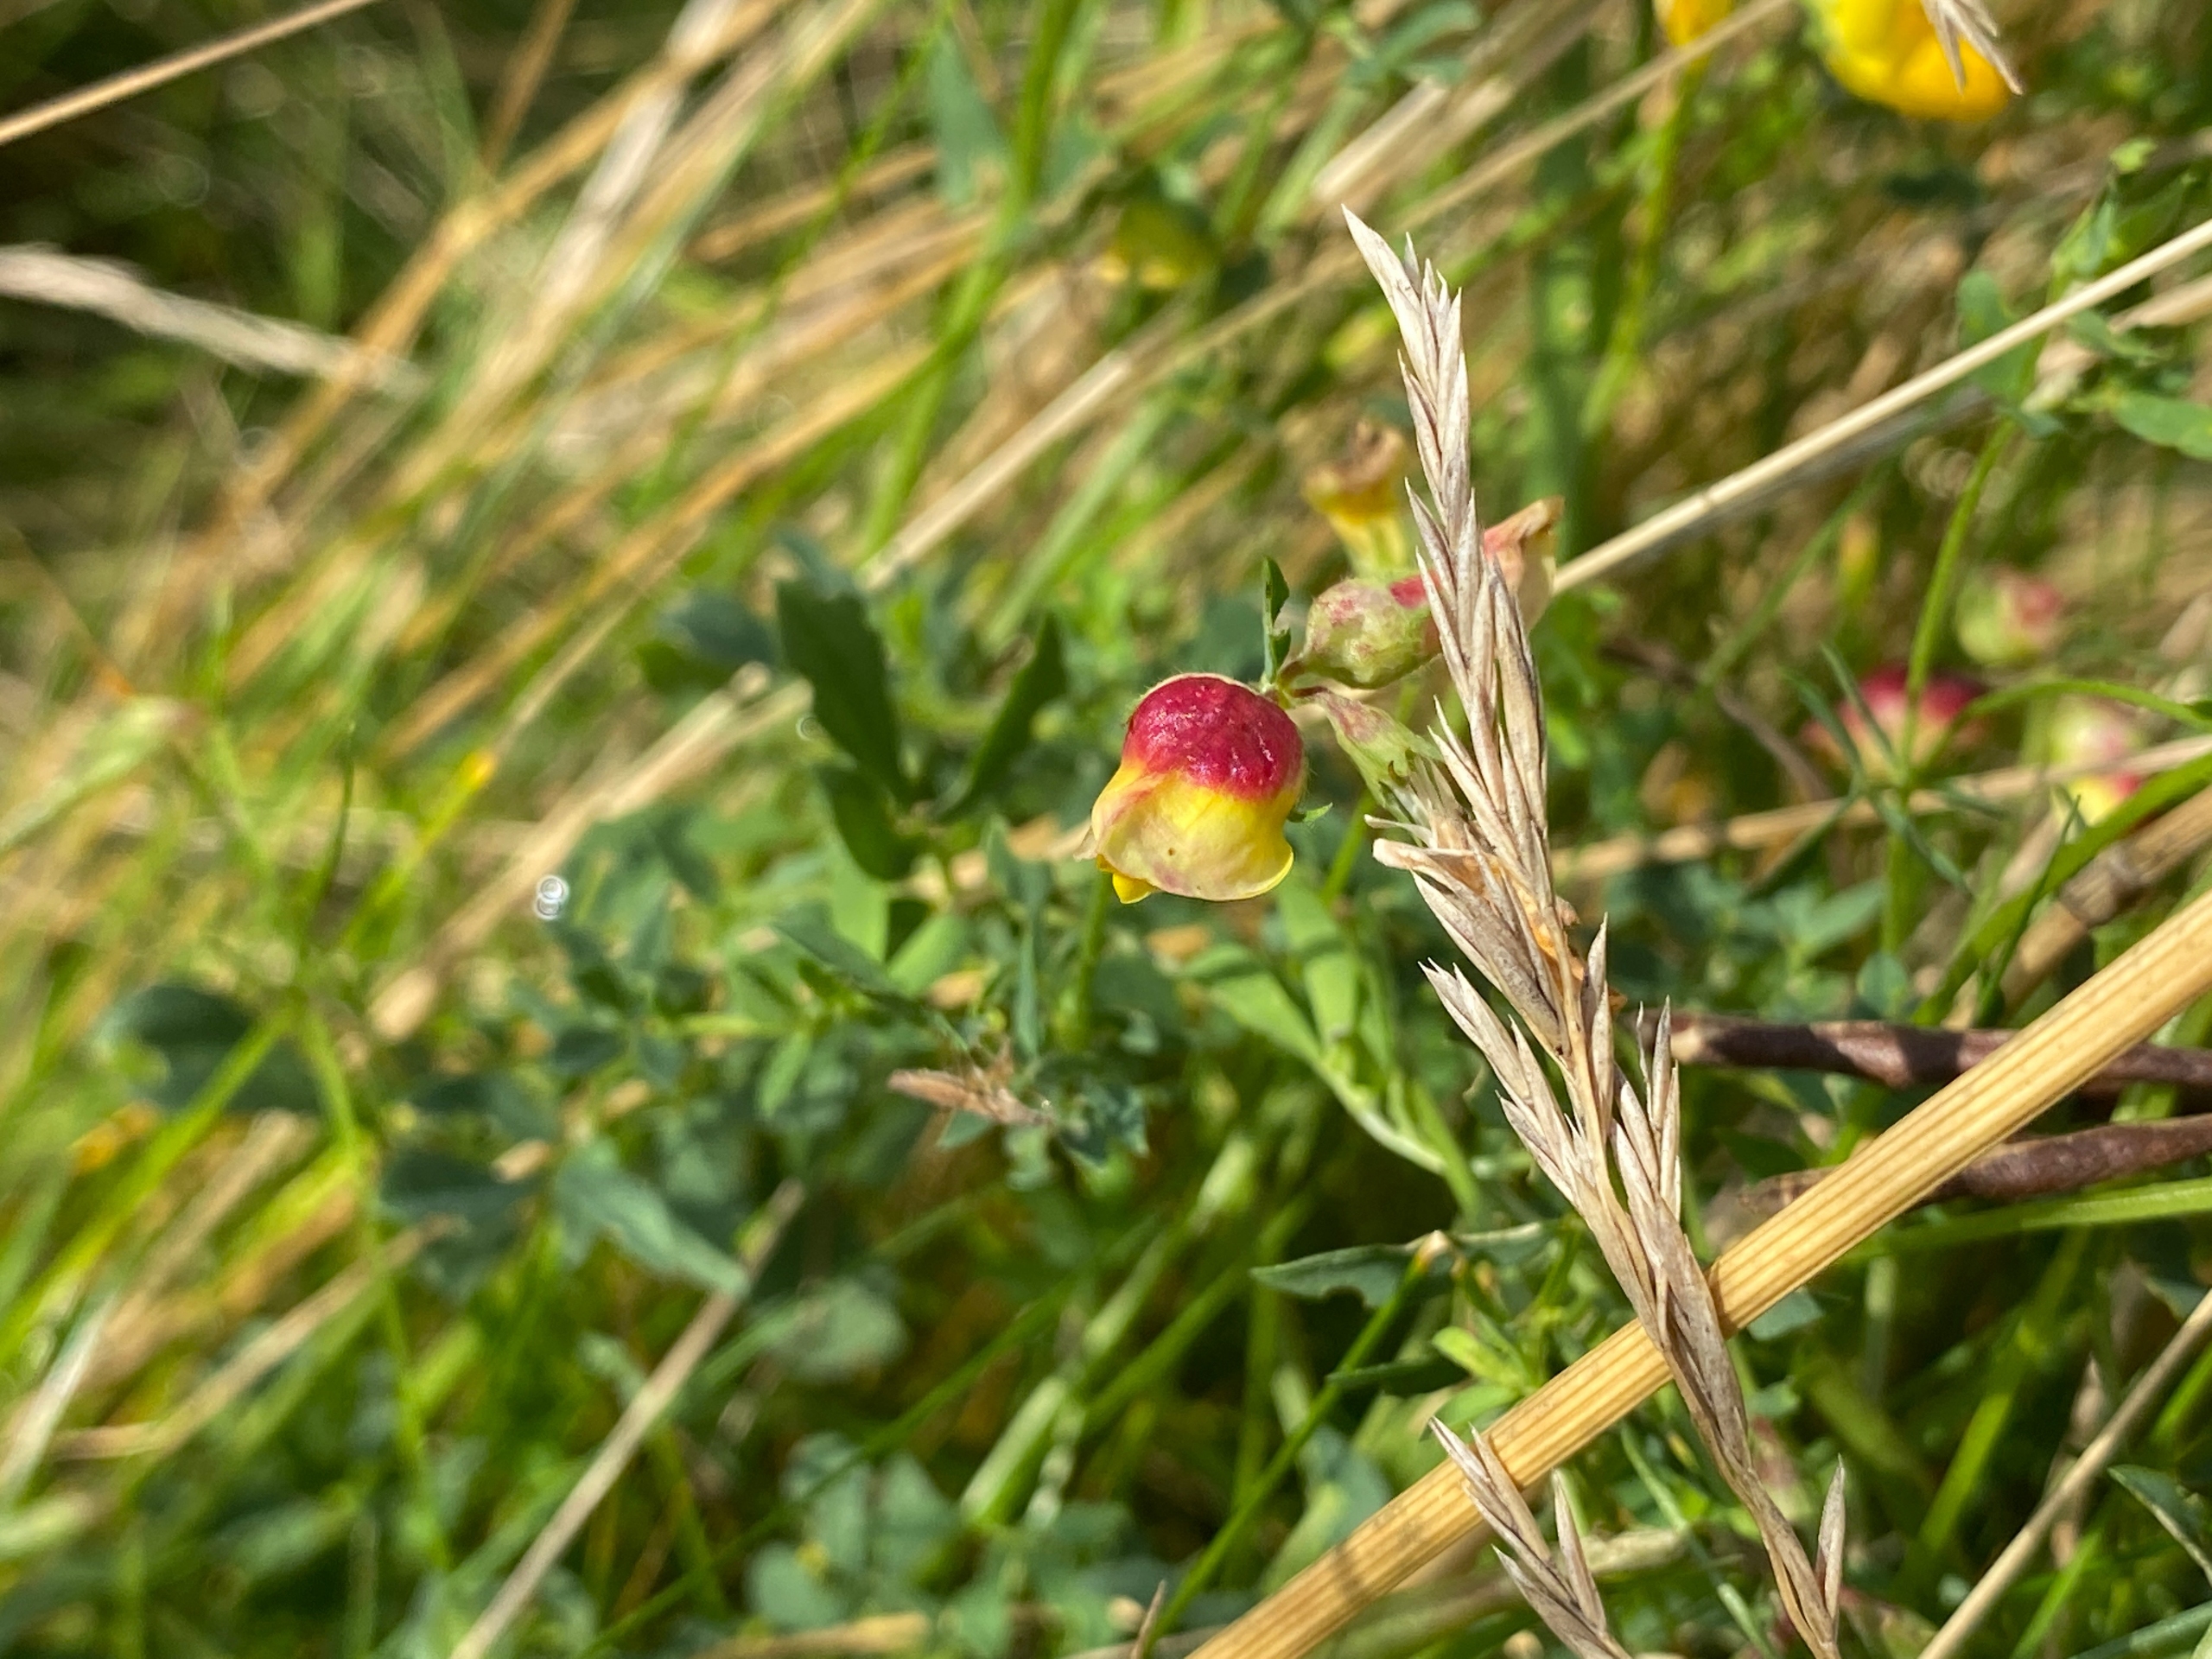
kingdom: Animalia
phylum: Arthropoda
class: Insecta
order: Diptera
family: Cecidomyiidae
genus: Contarinia
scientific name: Contarinia loti
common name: Kællingetandblomstgalmyg
